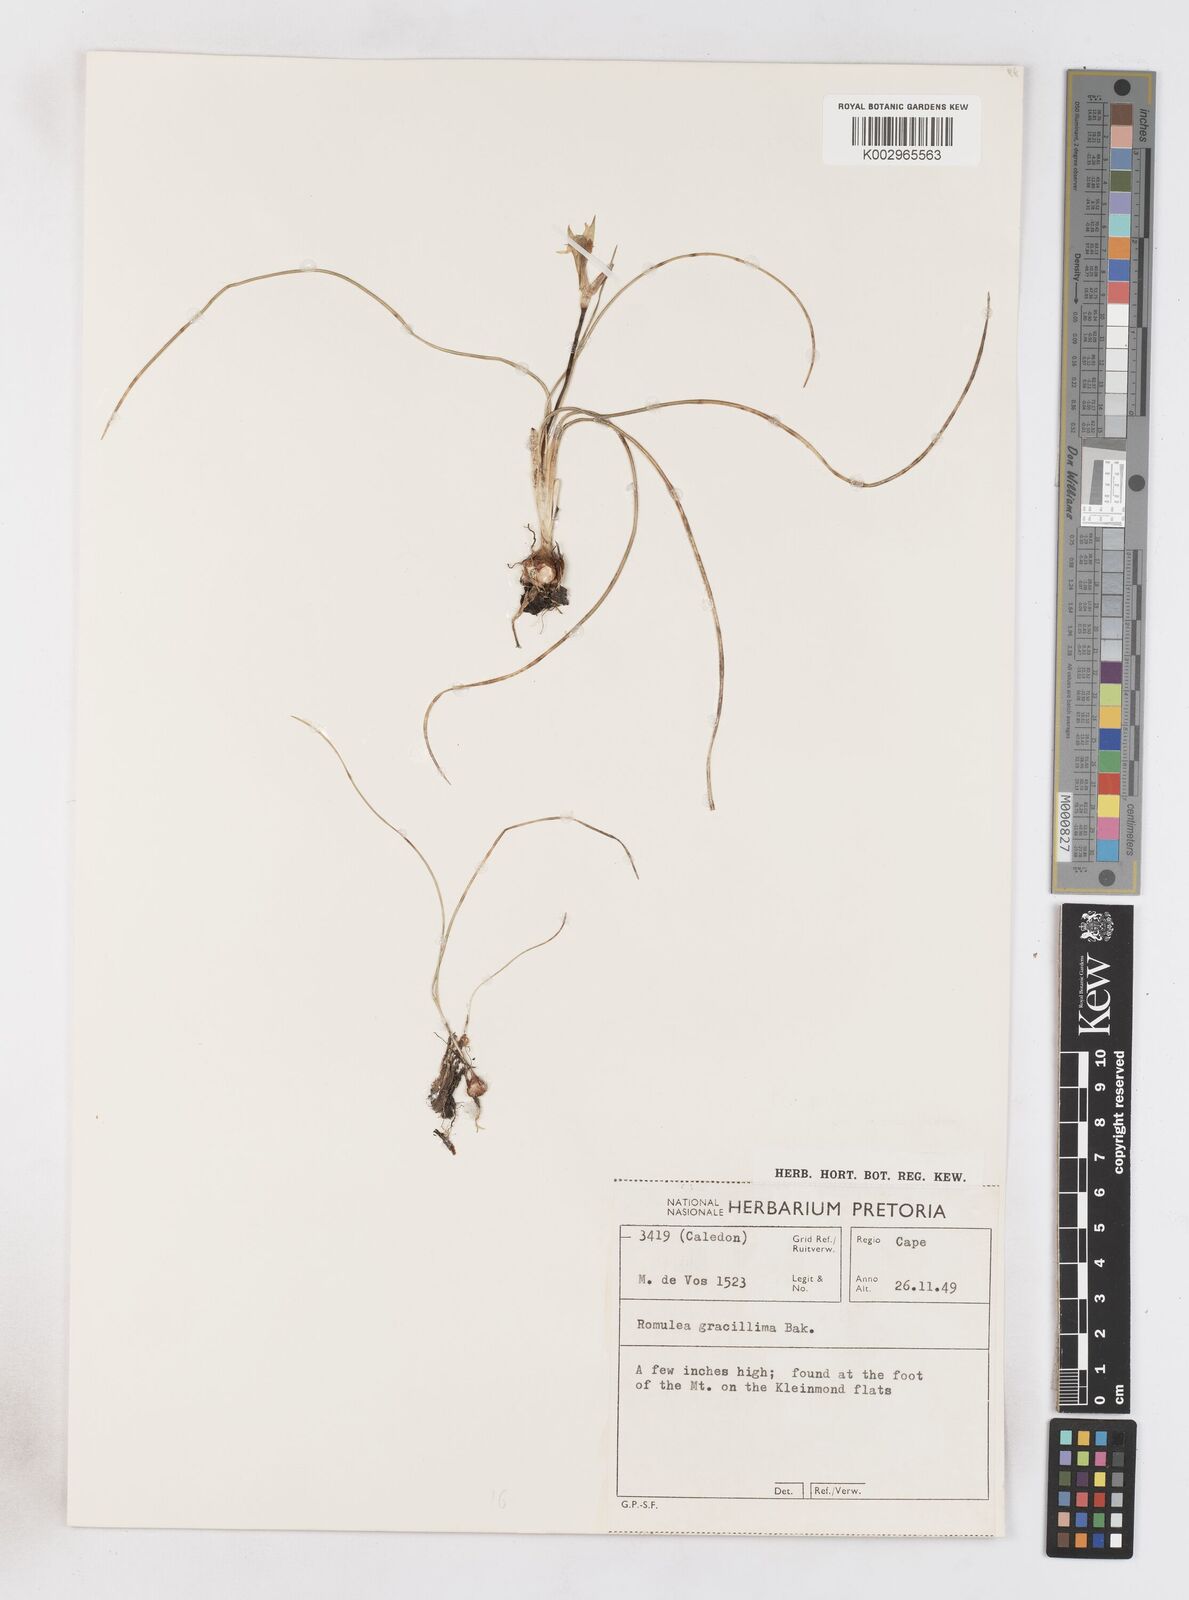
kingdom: Plantae
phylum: Tracheophyta
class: Liliopsida
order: Asparagales
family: Iridaceae
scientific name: Iridaceae
